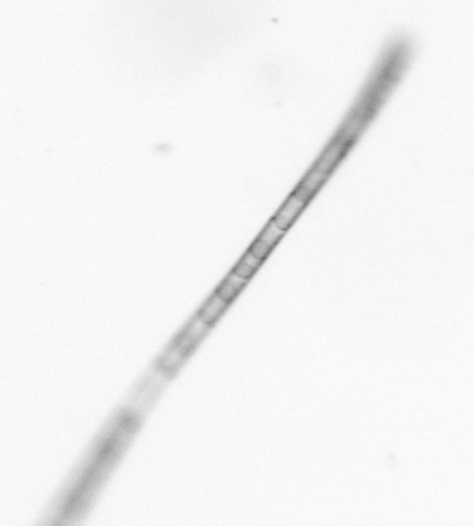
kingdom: Chromista
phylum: Ochrophyta
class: Bacillariophyceae
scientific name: Bacillariophyceae
